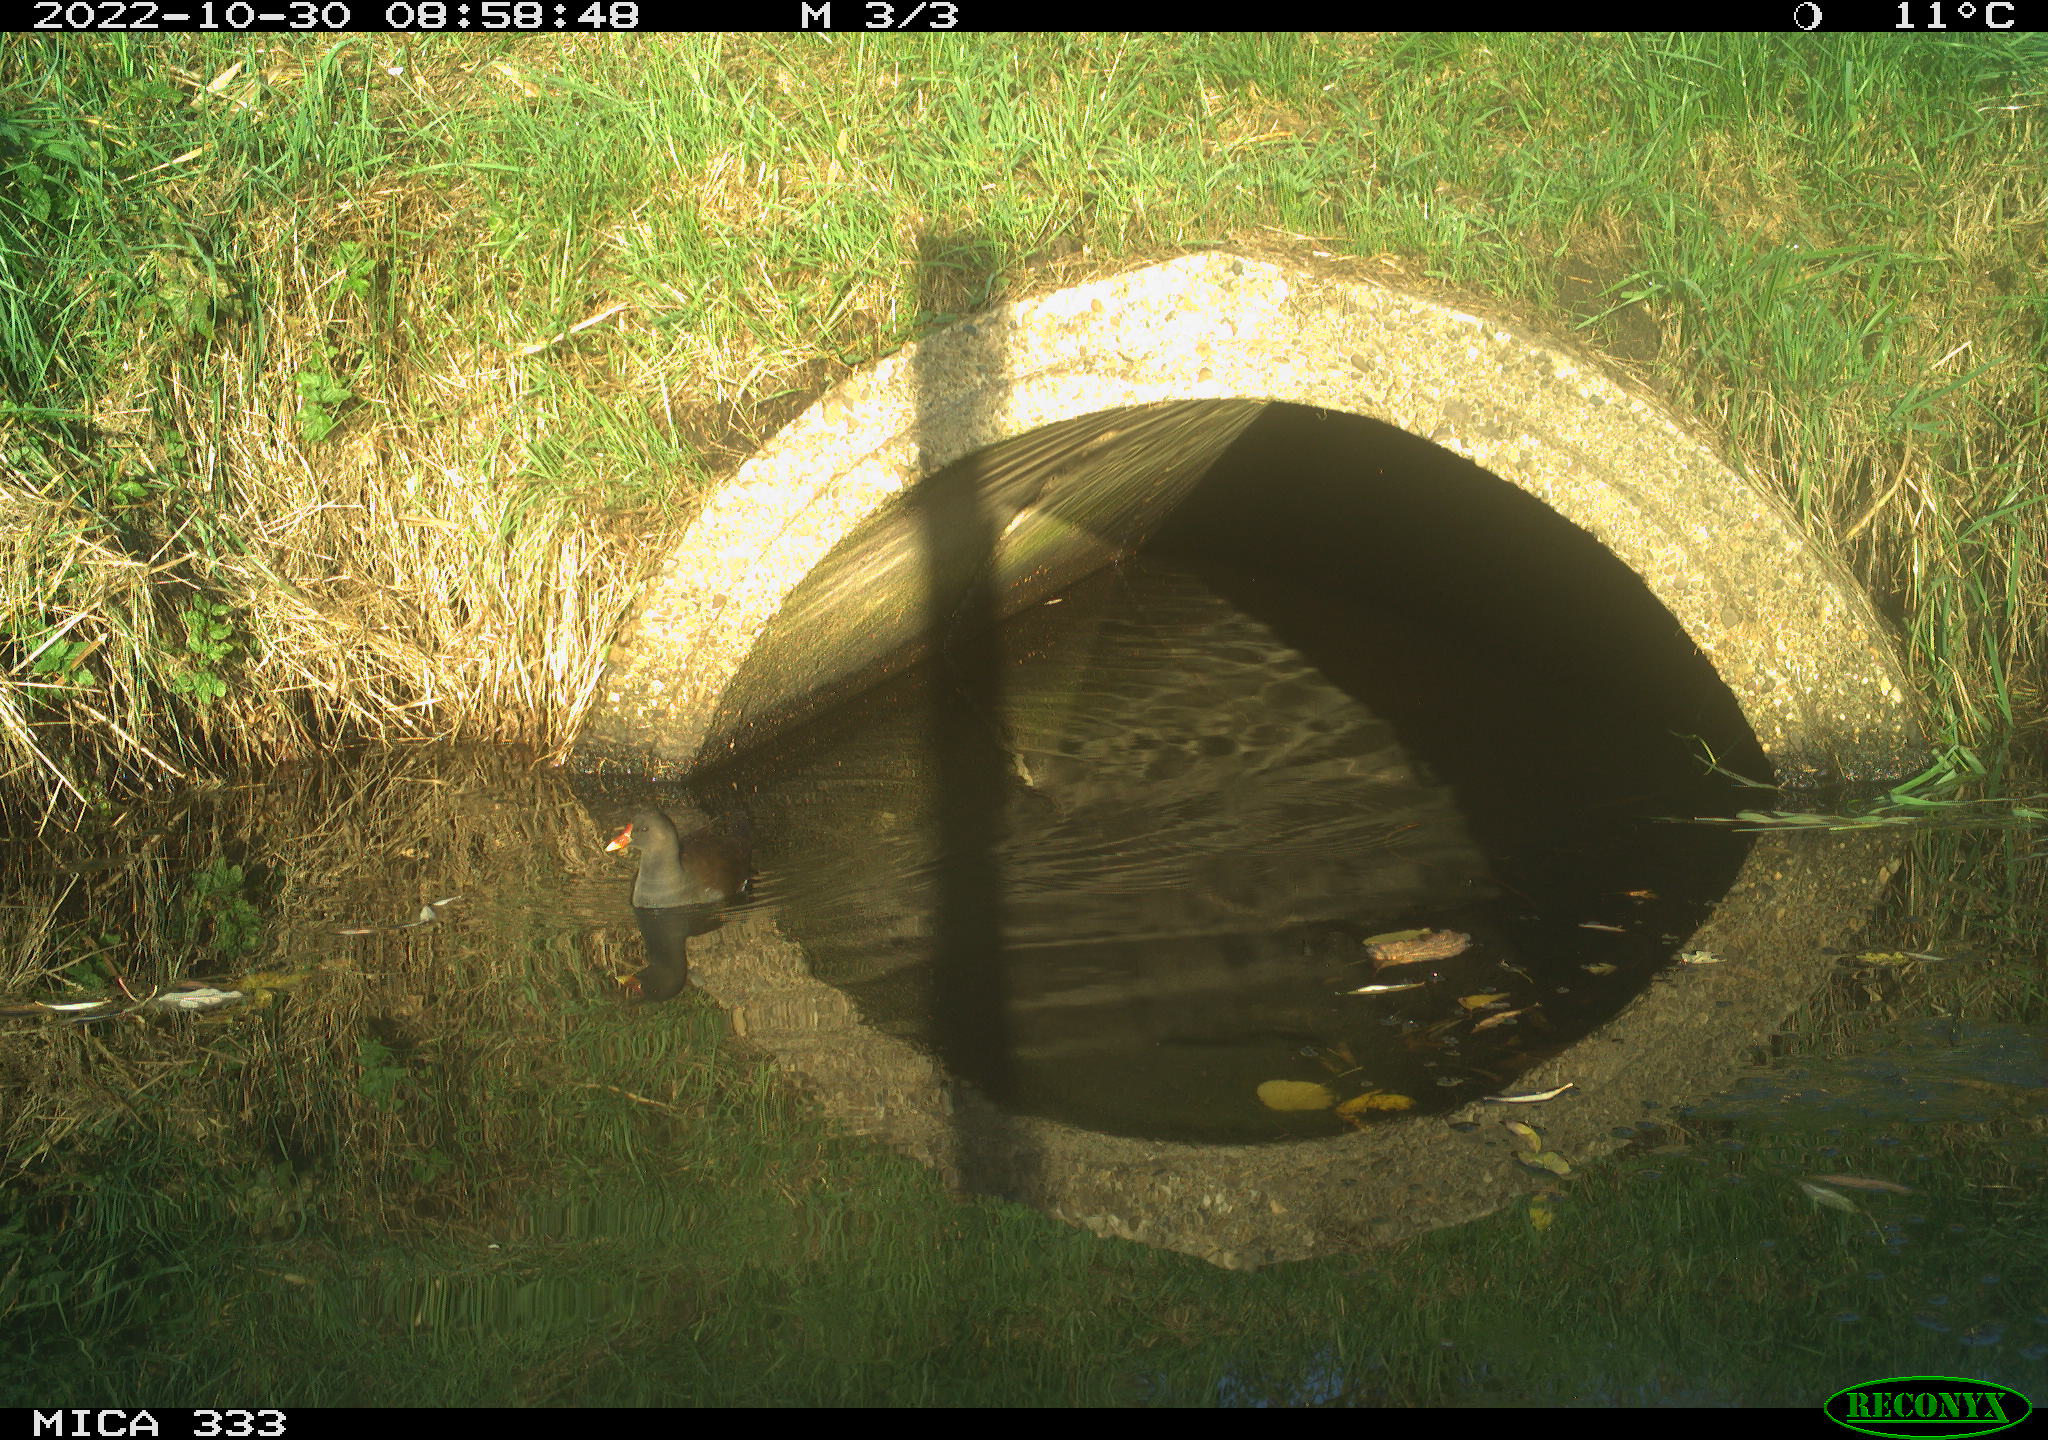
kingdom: Animalia
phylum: Chordata
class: Aves
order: Gruiformes
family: Rallidae
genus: Gallinula
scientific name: Gallinula chloropus
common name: Common moorhen
